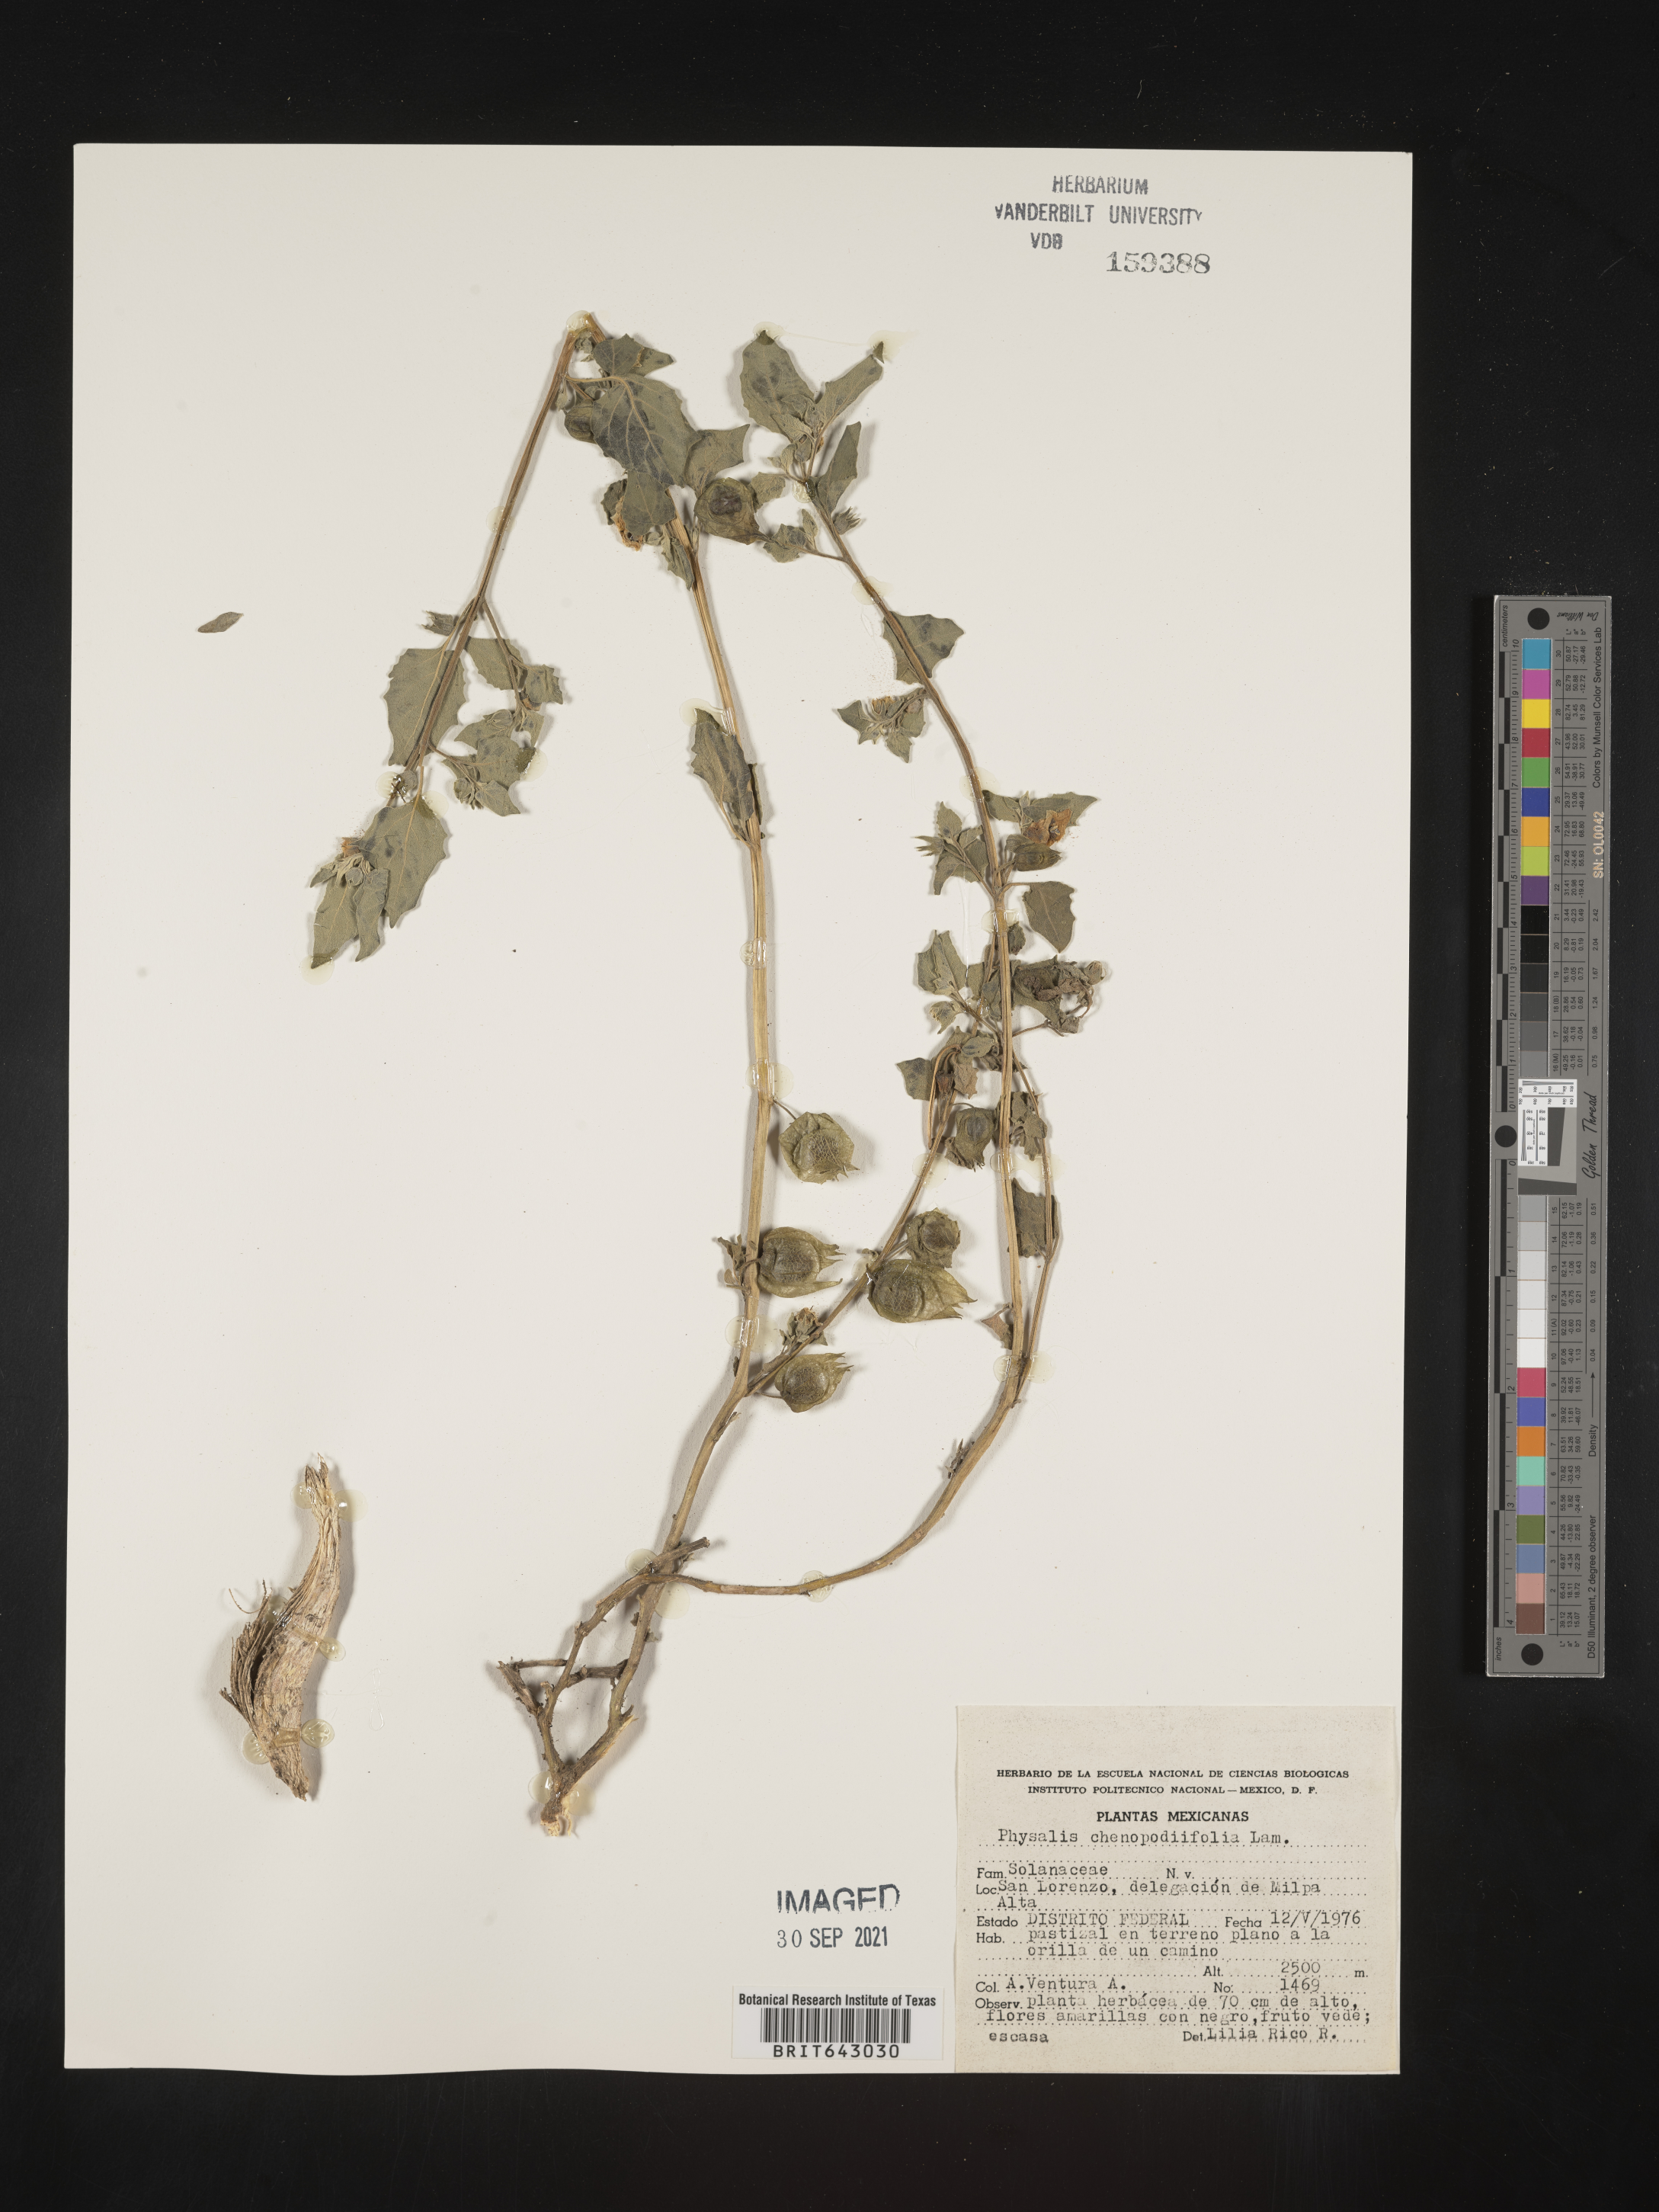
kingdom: Plantae
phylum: Tracheophyta
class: Magnoliopsida
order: Solanales
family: Solanaceae
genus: Physalis
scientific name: Physalis
